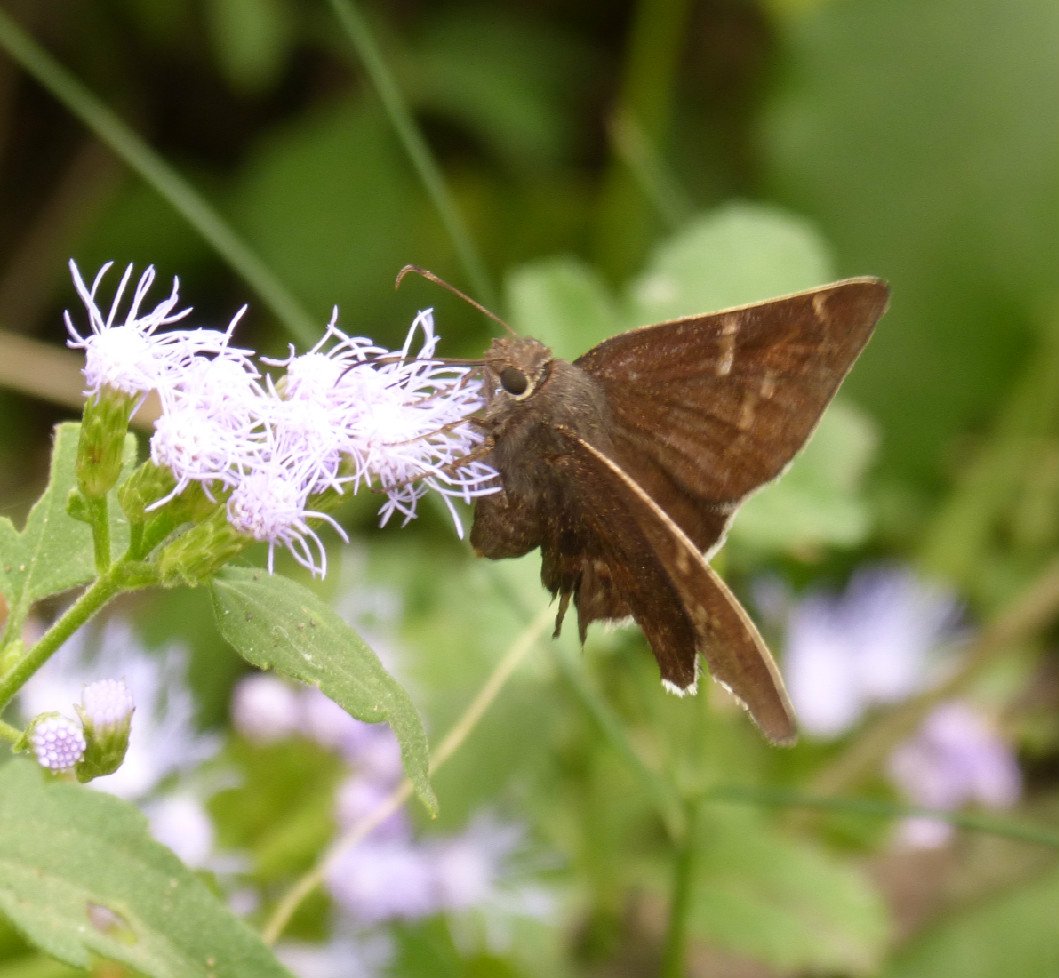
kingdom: Animalia
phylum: Arthropoda
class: Insecta
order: Lepidoptera
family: Hesperiidae
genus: Achalarus
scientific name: Achalarus toxeus
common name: Coyote Cloudywing
